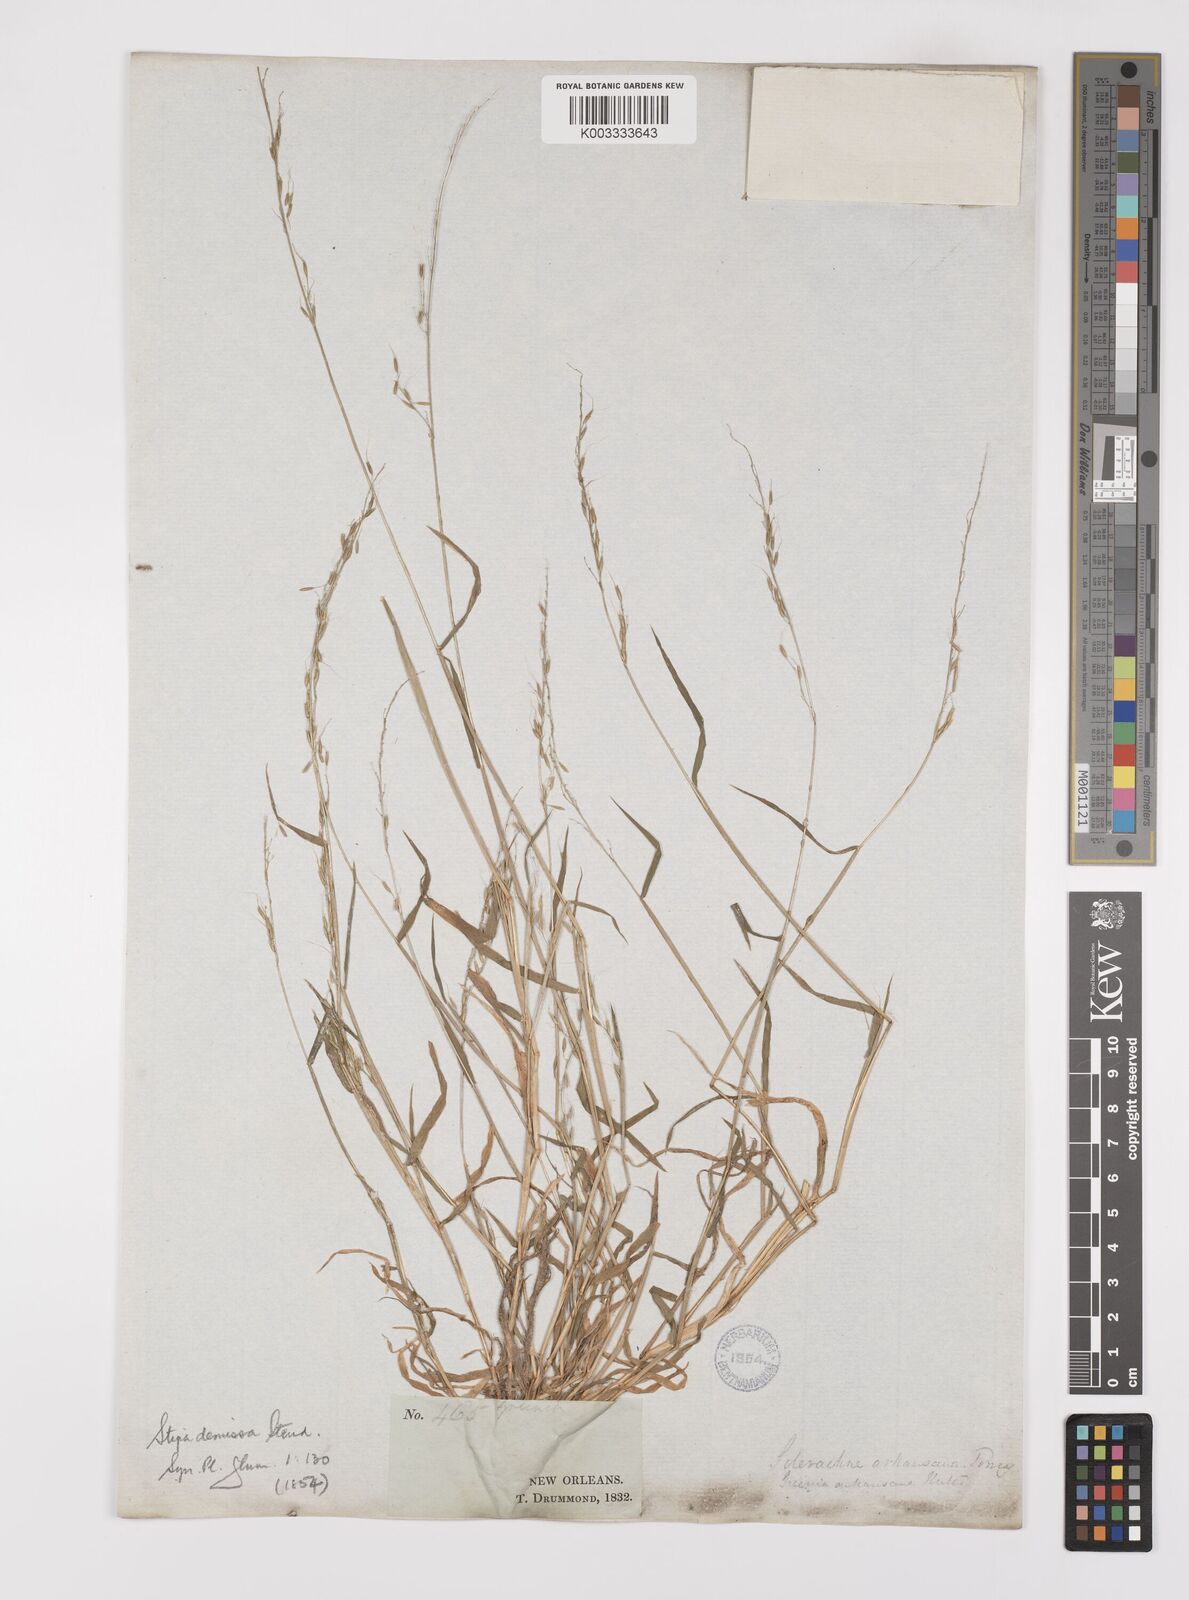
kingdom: Plantae
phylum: Tracheophyta
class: Liliopsida
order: Poales
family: Poaceae
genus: Limnodea
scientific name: Limnodea arkansana
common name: Ozark-grass
